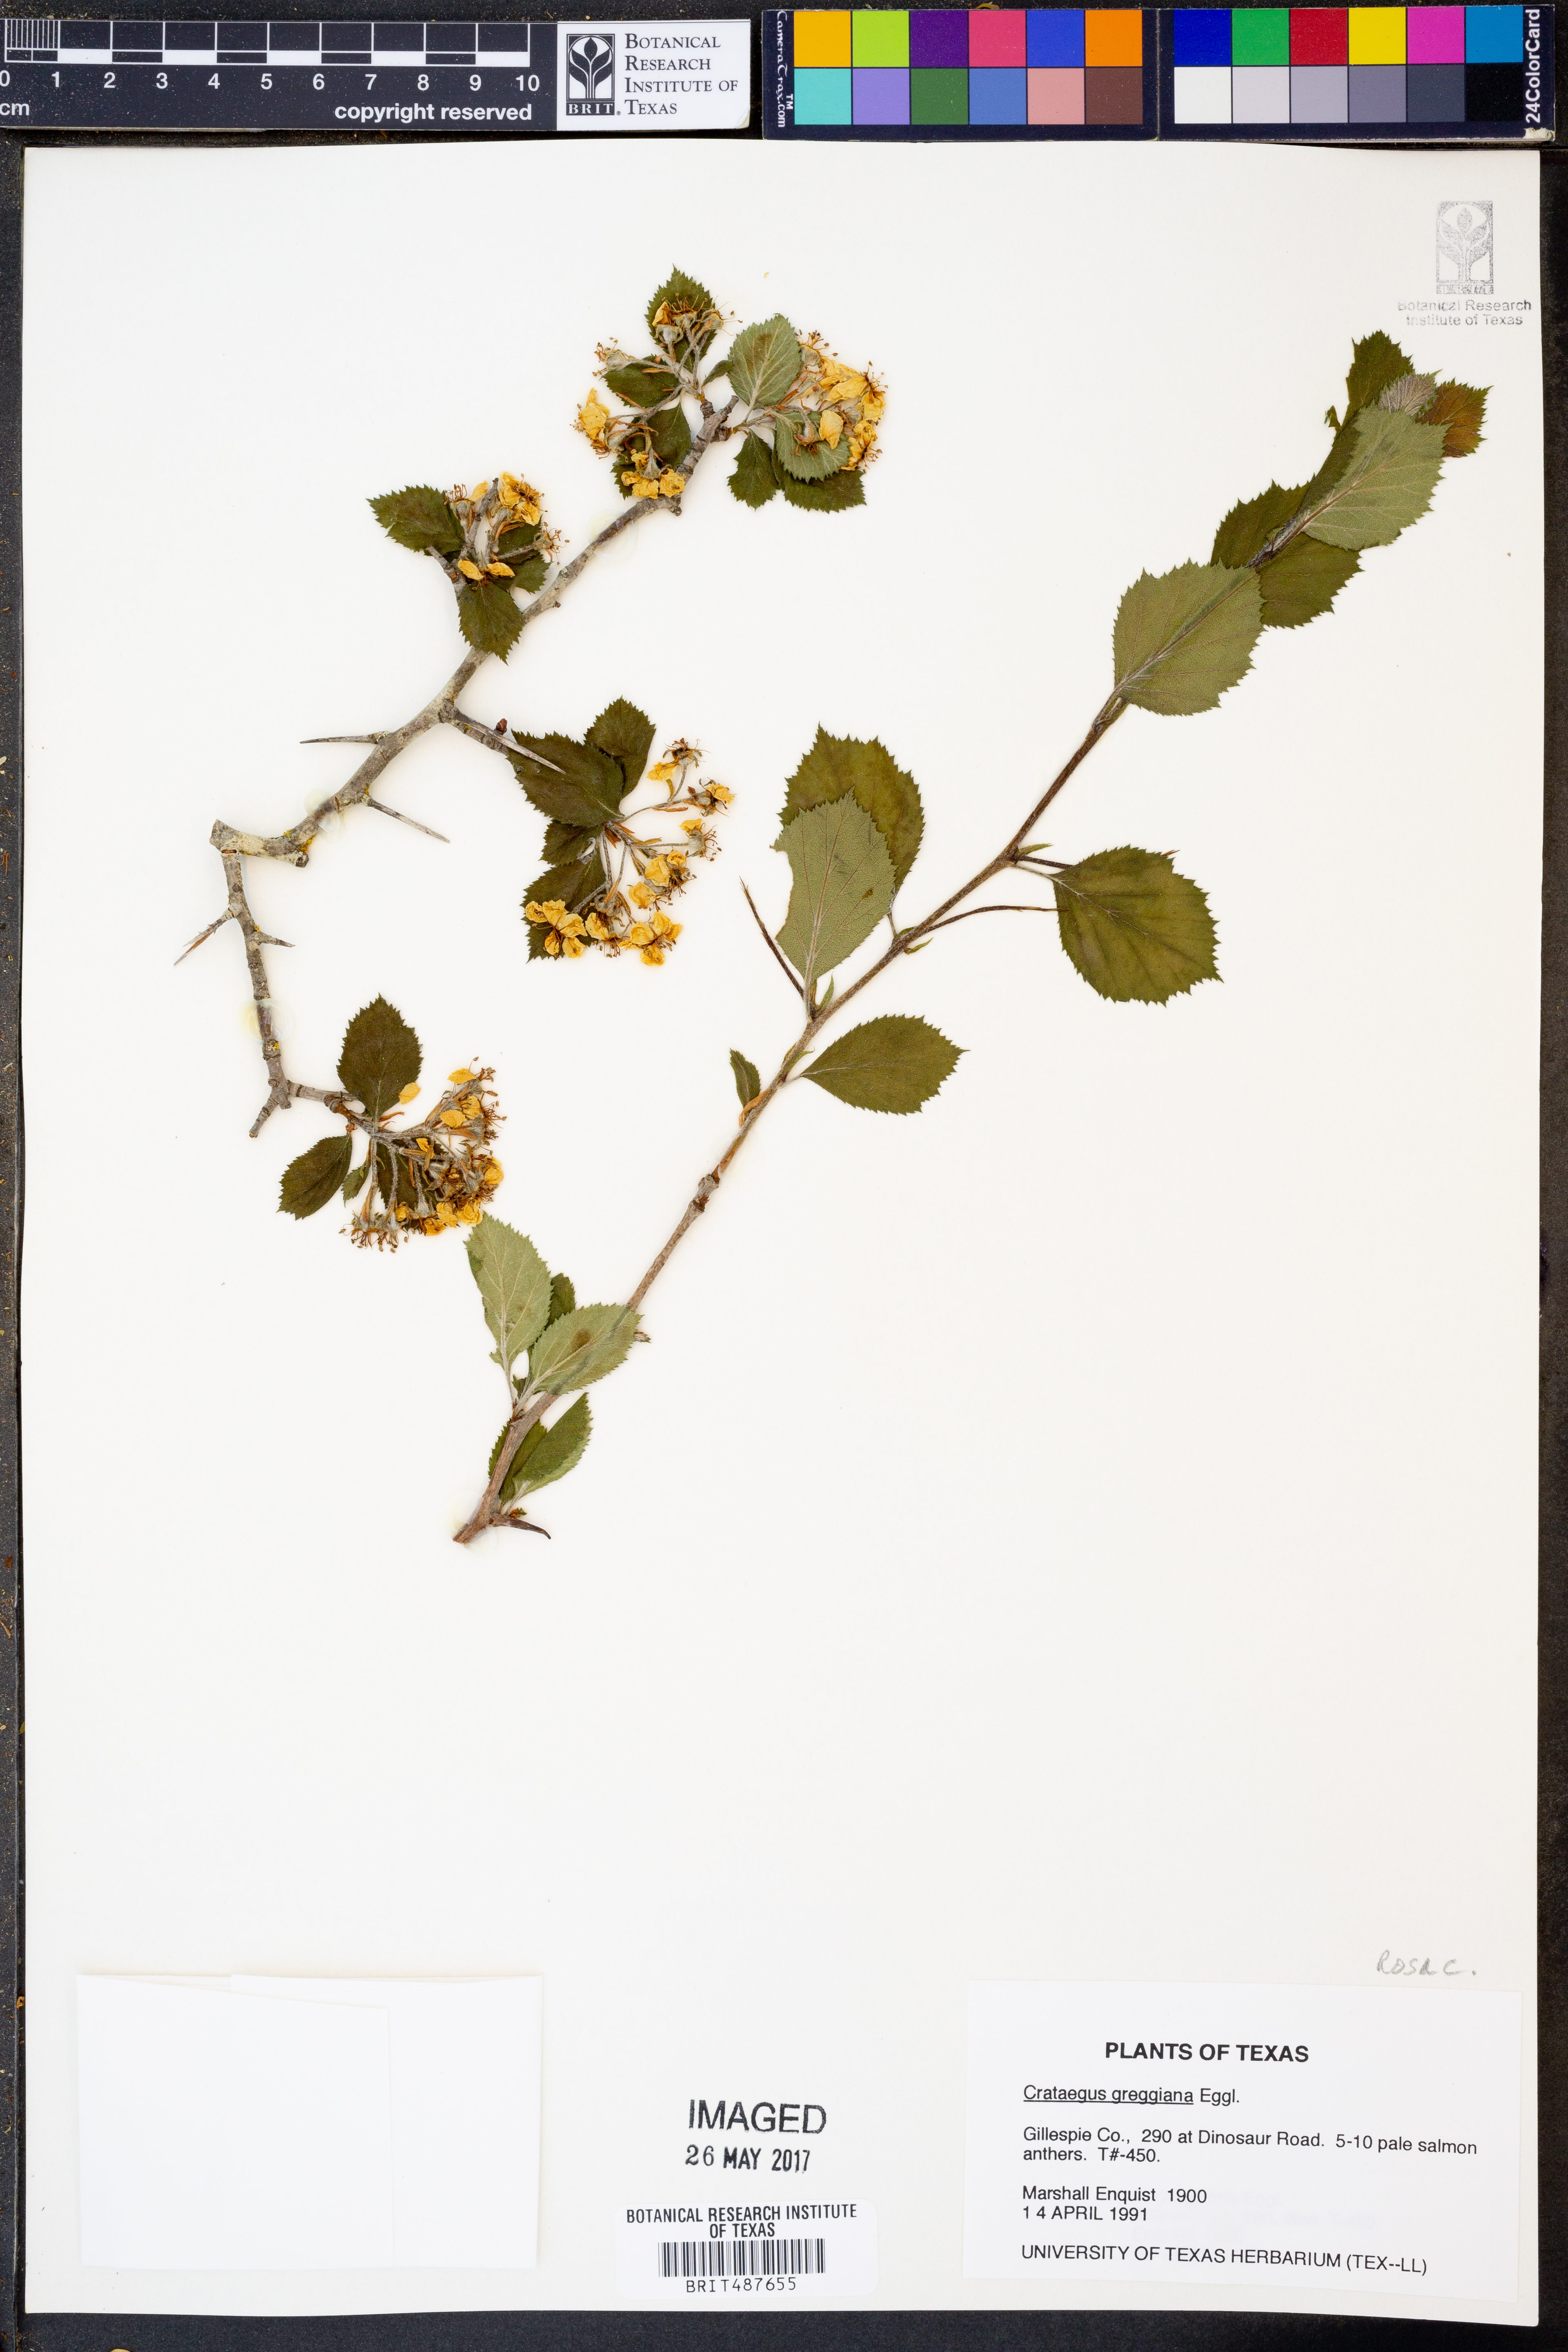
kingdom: Plantae
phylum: Tracheophyta
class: Magnoliopsida
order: Rosales
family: Rosaceae
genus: Crataegus
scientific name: Crataegus greggiana
